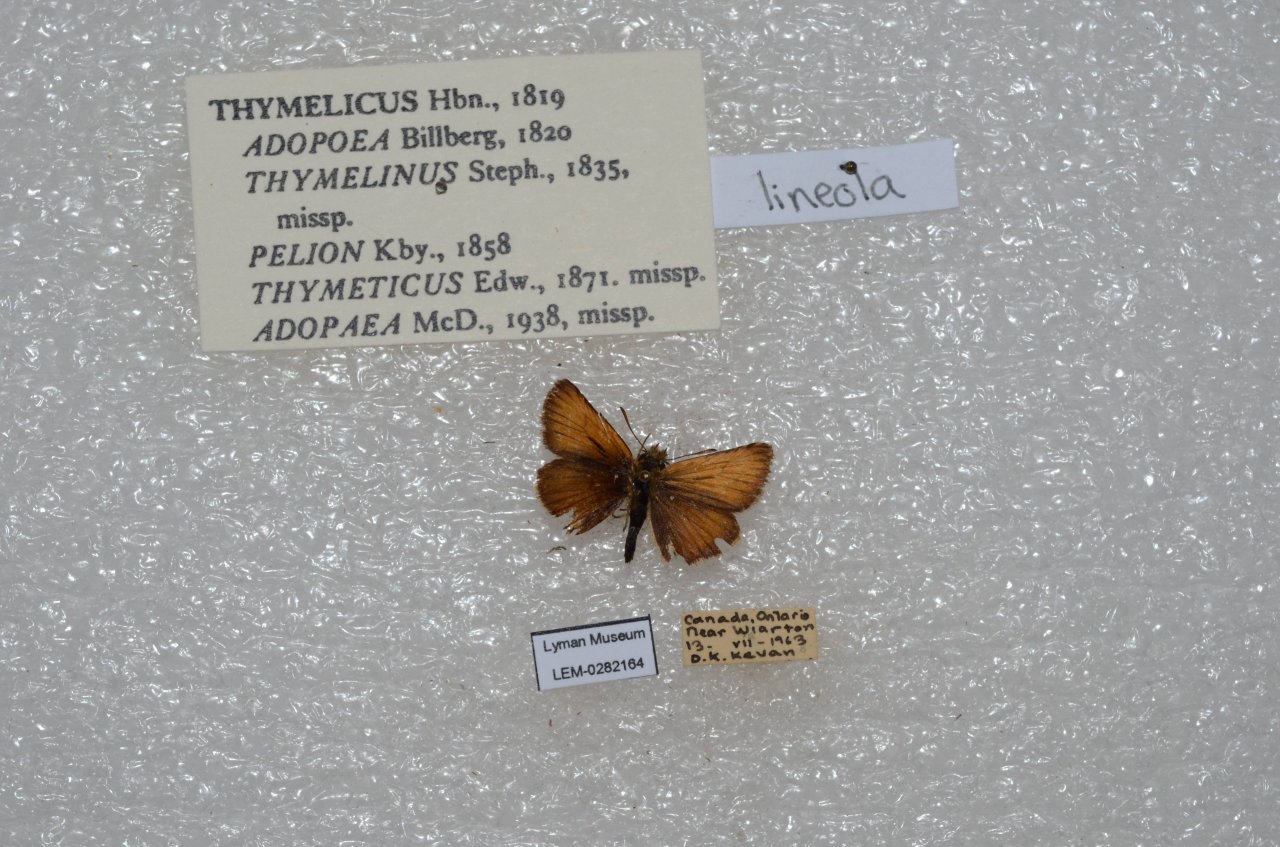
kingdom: Animalia
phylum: Arthropoda
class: Insecta
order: Lepidoptera
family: Hesperiidae
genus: Thymelicus
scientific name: Thymelicus lineola
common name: European Skipper
